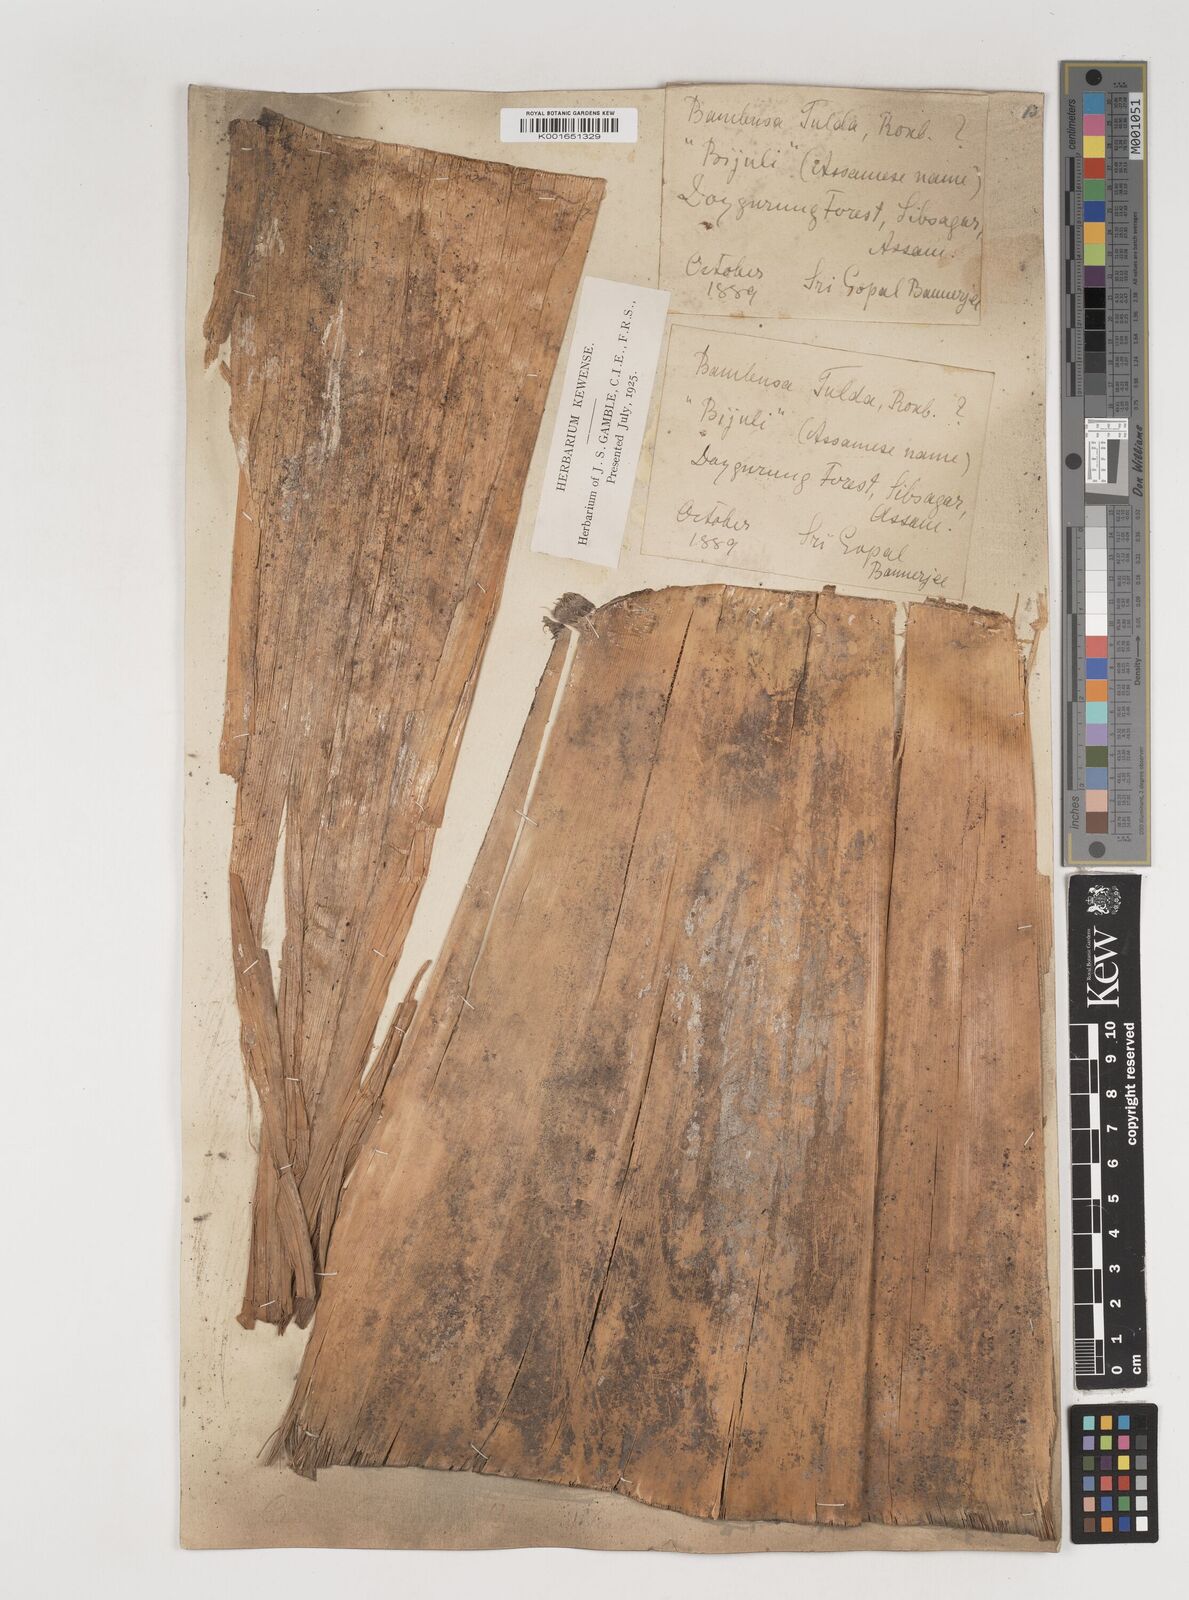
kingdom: Plantae
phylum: Tracheophyta
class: Liliopsida
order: Poales
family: Poaceae
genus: Bambusa
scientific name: Bambusa pallida
